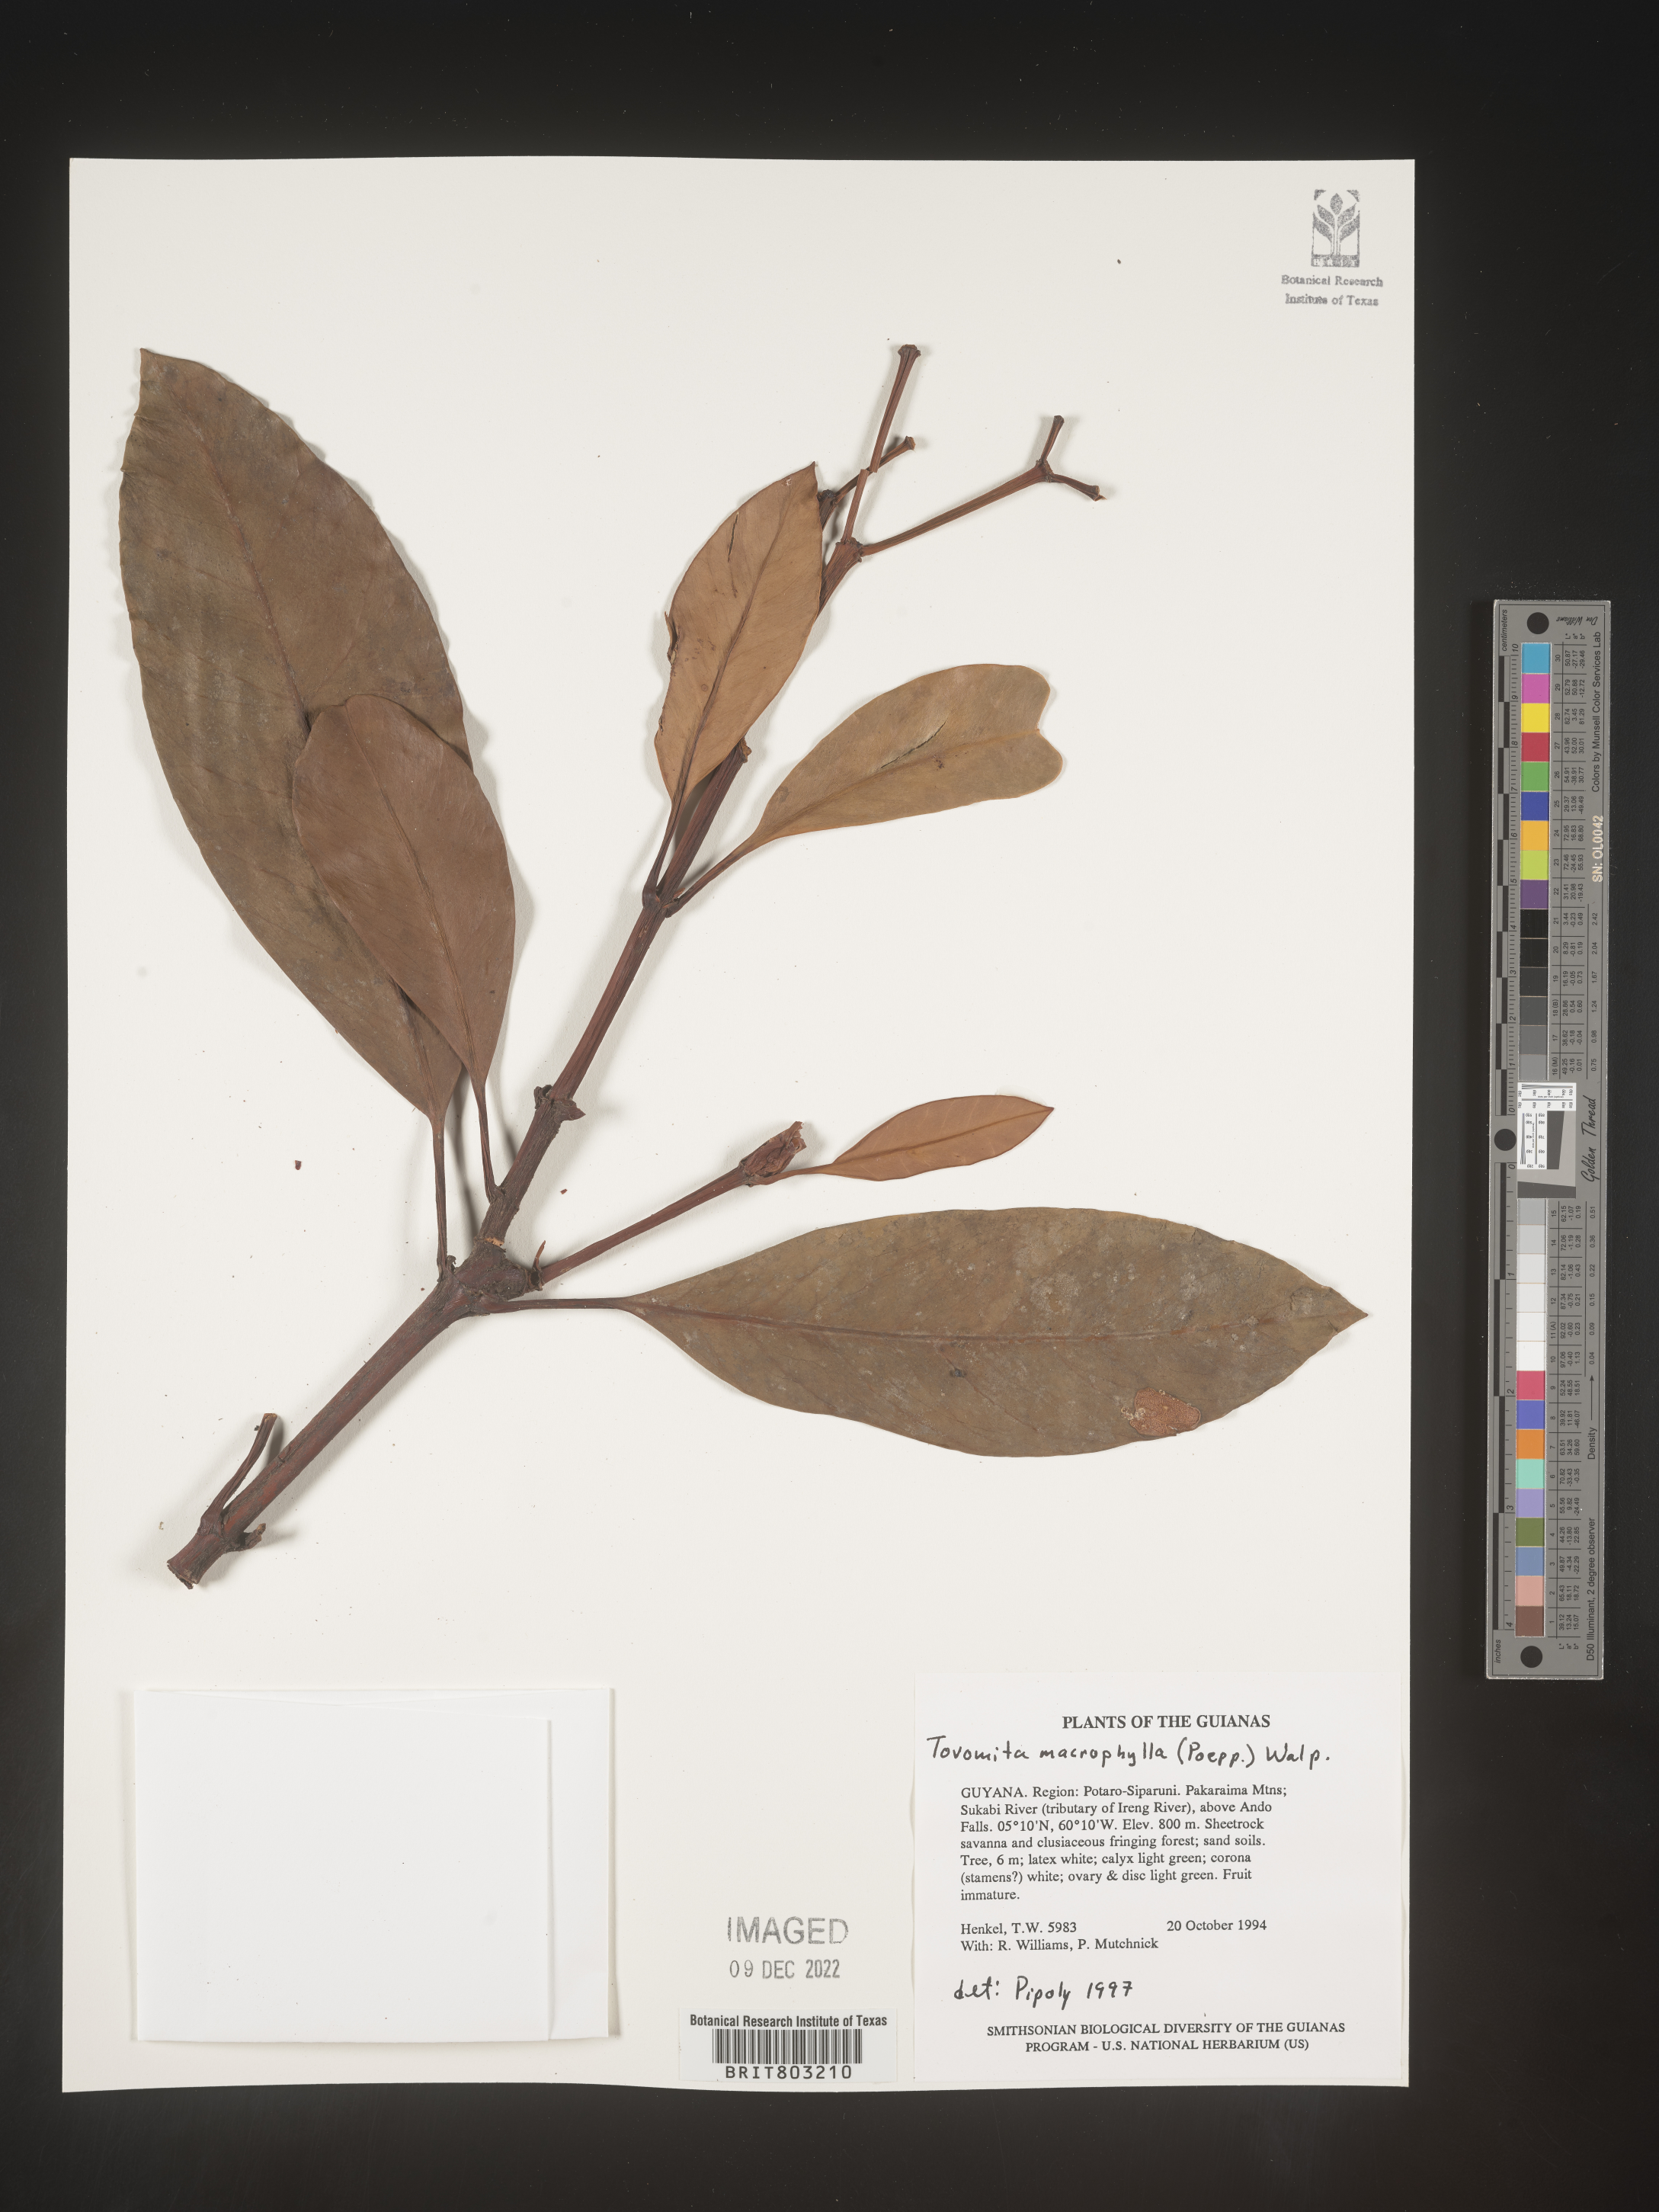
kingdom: Plantae
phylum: Tracheophyta
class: Magnoliopsida
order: Malpighiales
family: Clusiaceae
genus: Tovomita
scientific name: Tovomita
